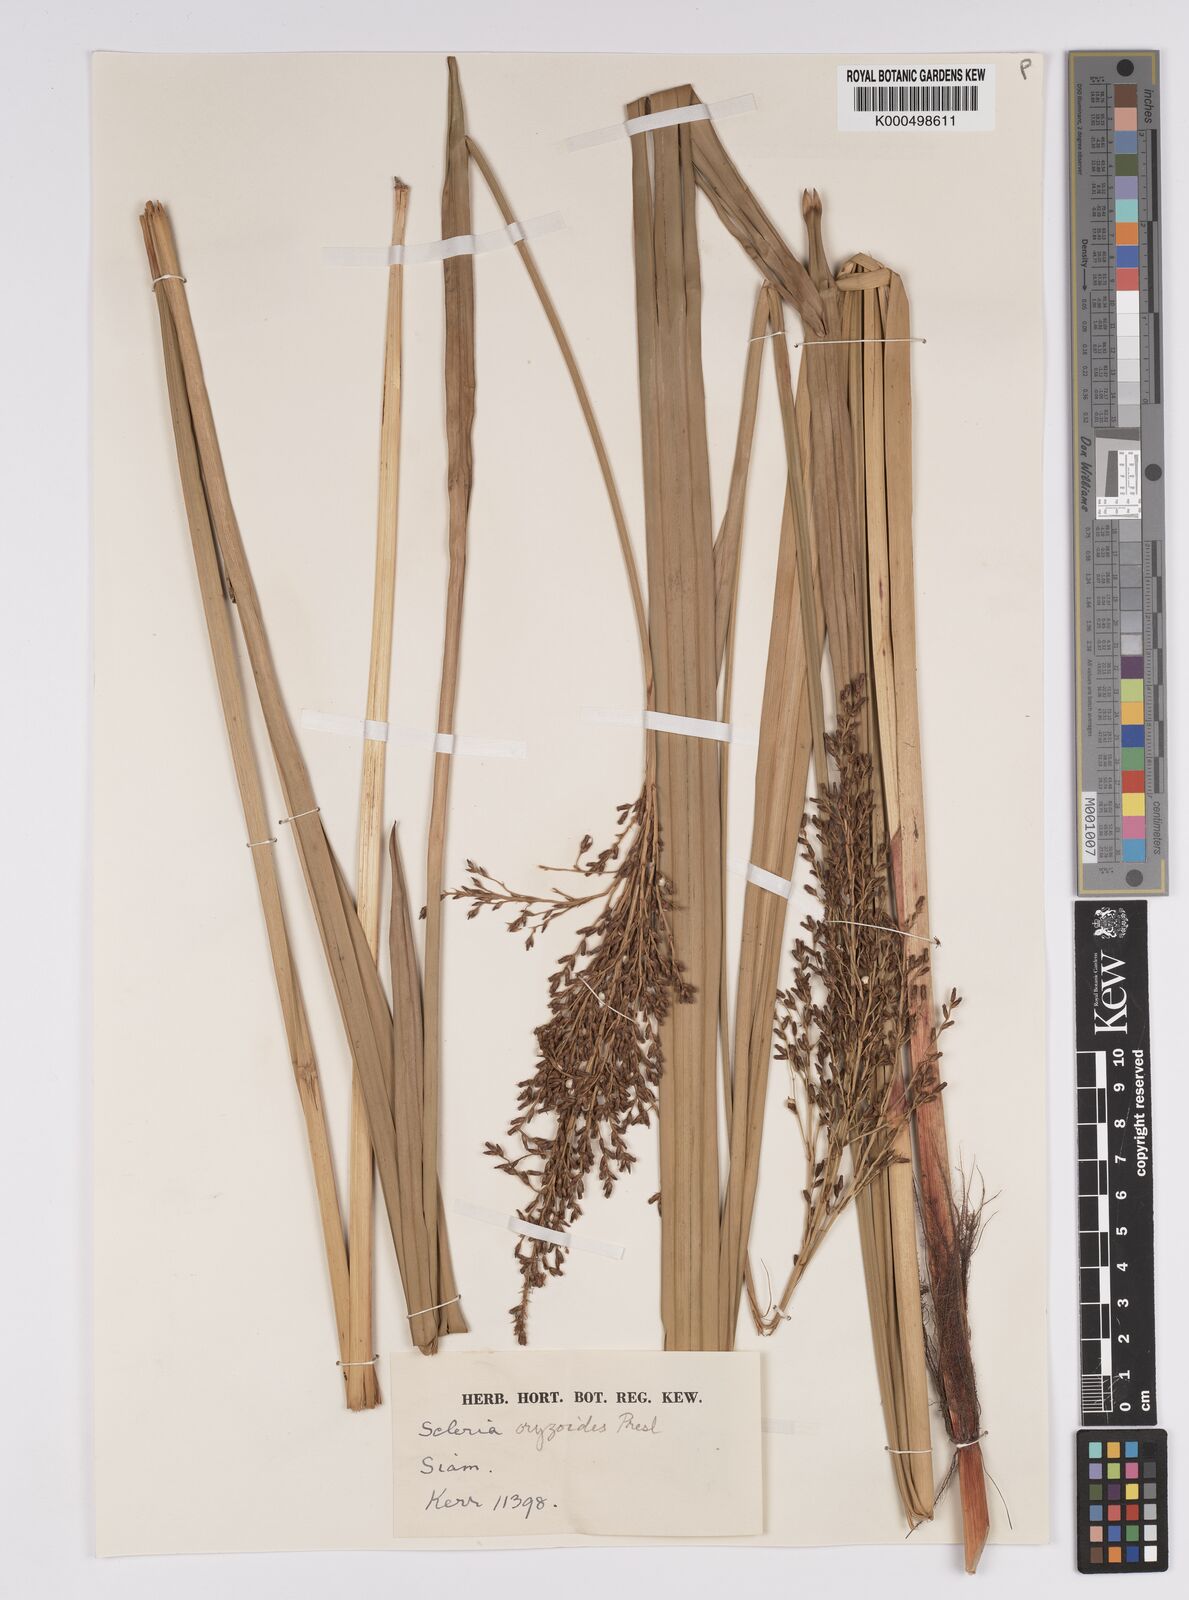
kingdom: Plantae
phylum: Tracheophyta
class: Liliopsida
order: Poales
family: Cyperaceae
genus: Scleria
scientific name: Scleria poiformis
